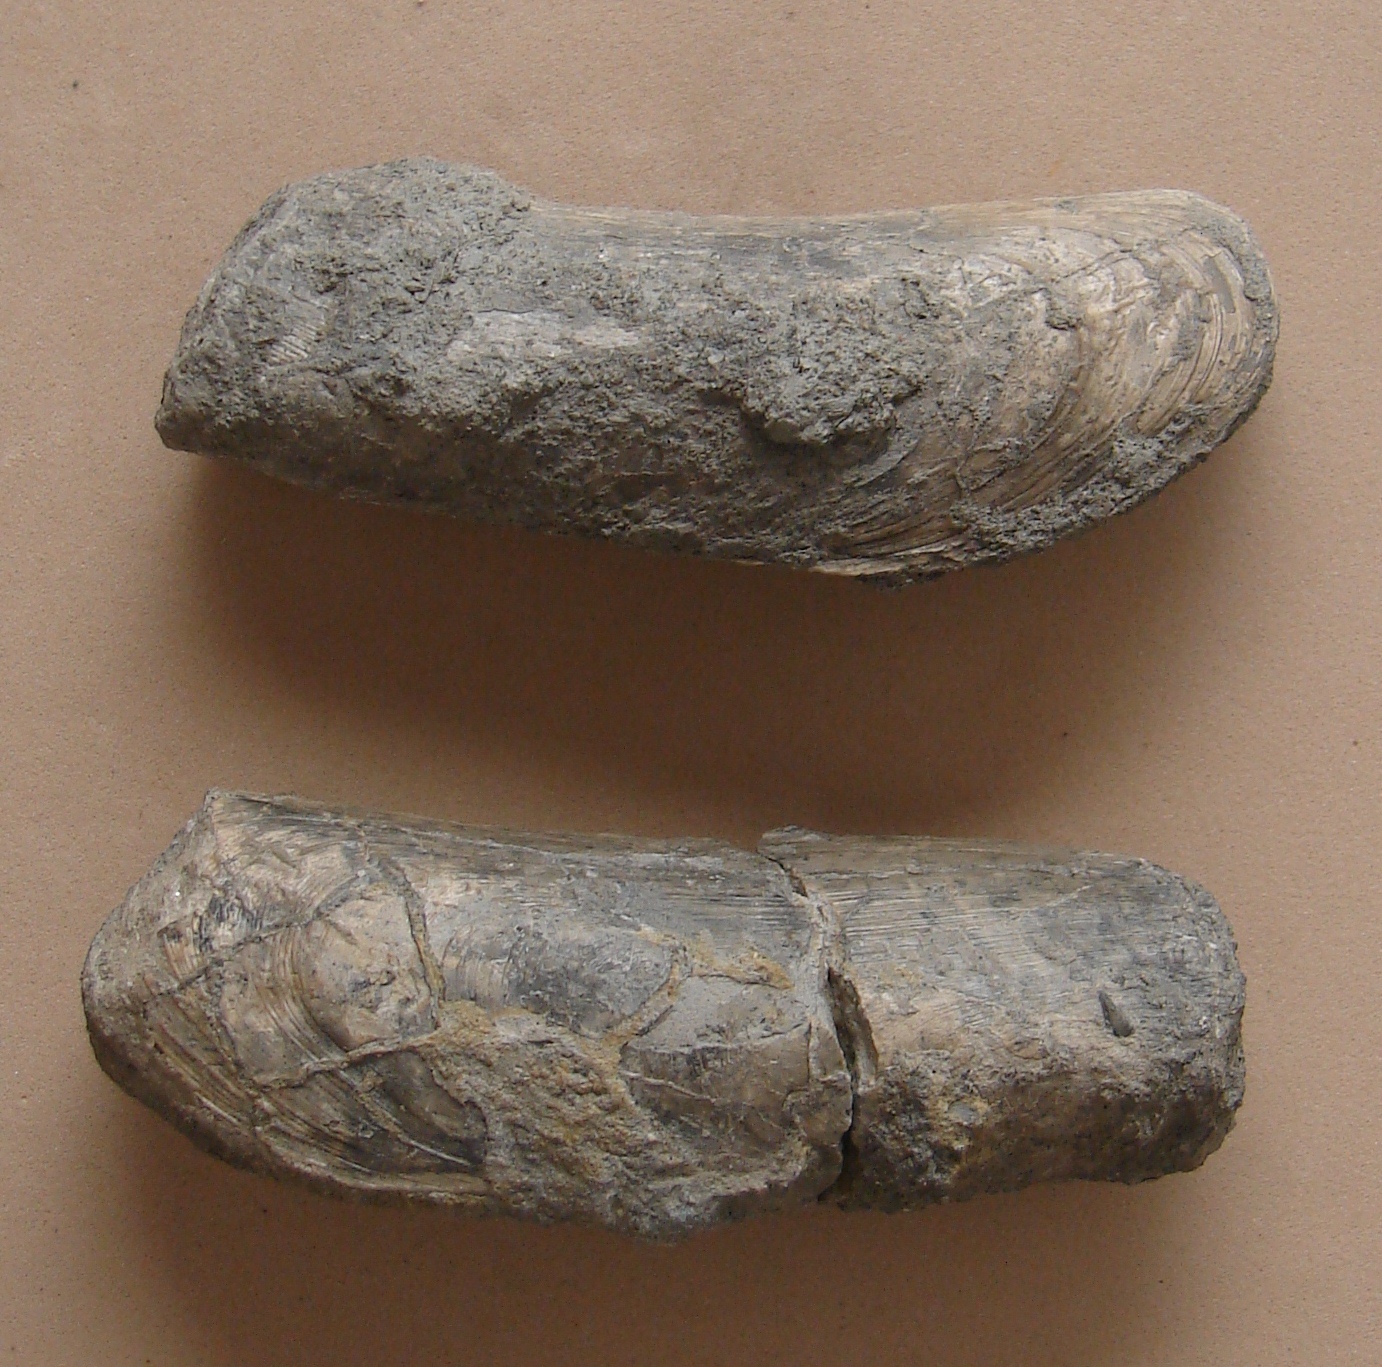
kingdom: Animalia
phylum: Mollusca
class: Bivalvia
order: Mytilida
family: Mytilidae
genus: Mytilus
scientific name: Mytilus
